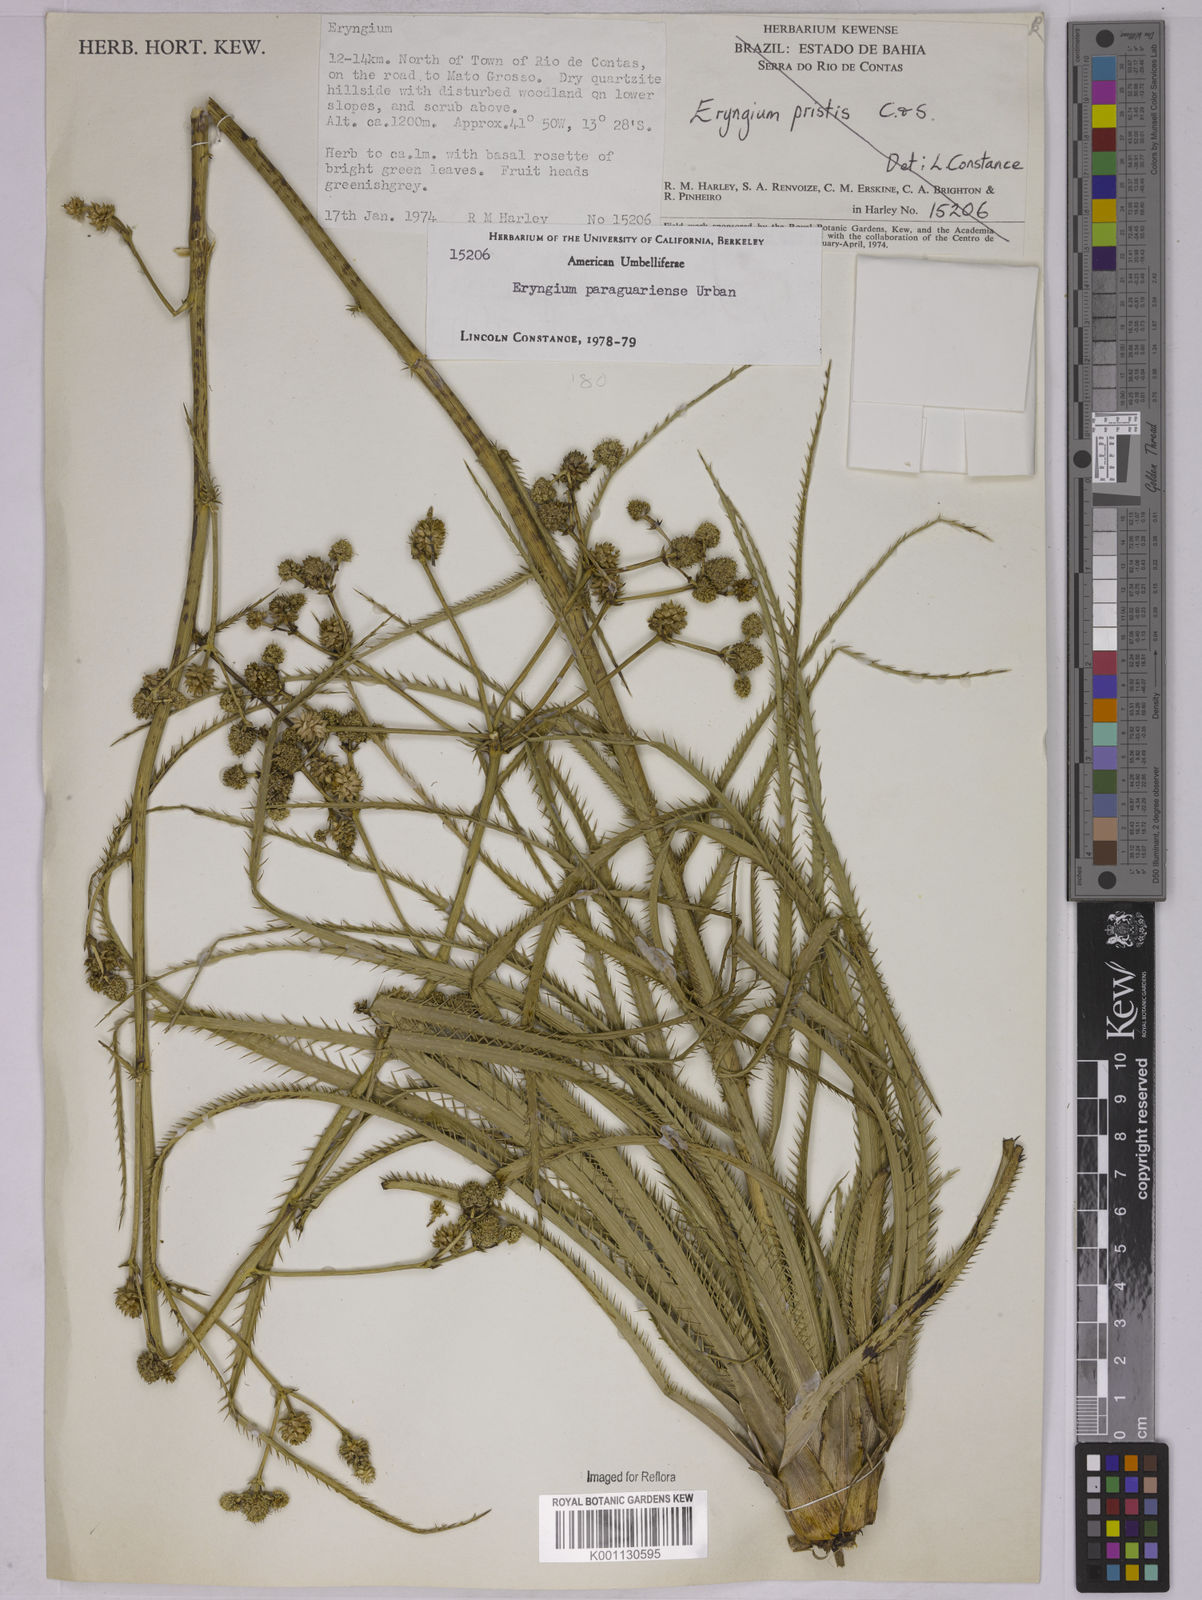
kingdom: Plantae
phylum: Tracheophyta
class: Magnoliopsida
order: Apiales
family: Apiaceae
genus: Eryngium
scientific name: Eryngium canaliculatum
